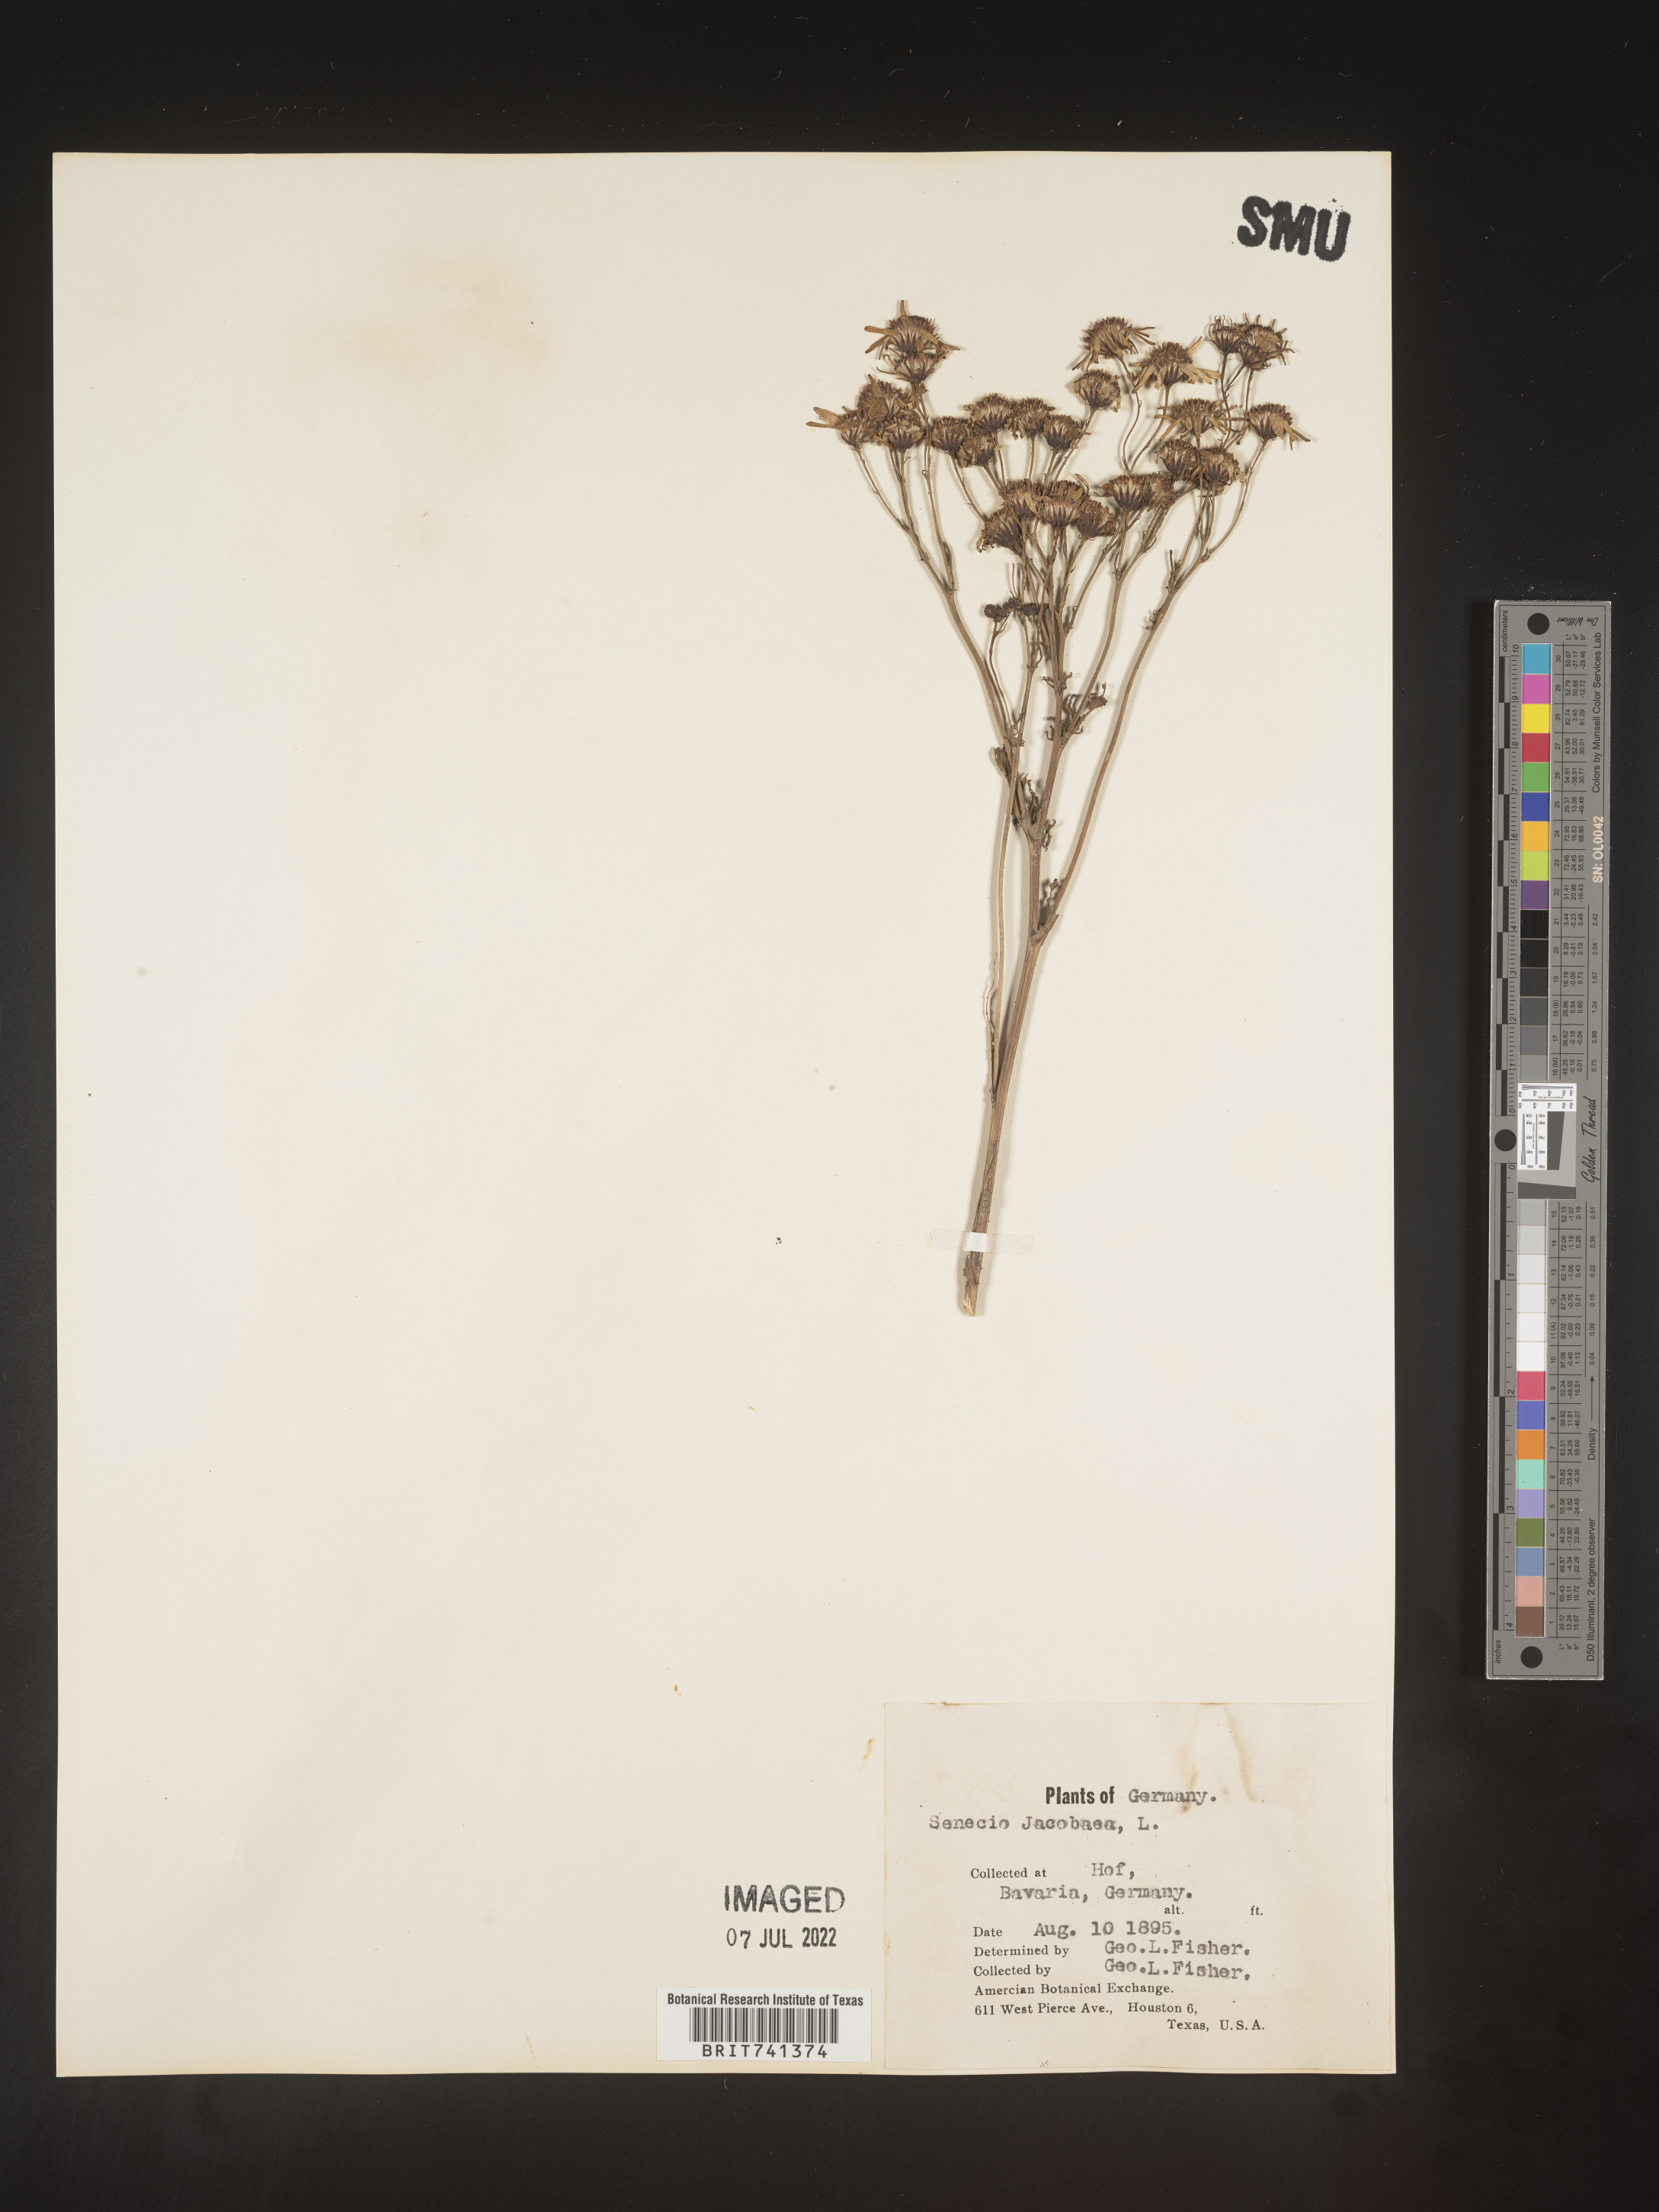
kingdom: Plantae
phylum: Tracheophyta
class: Magnoliopsida
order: Asterales
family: Asteraceae
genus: Senecio
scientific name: Senecio
